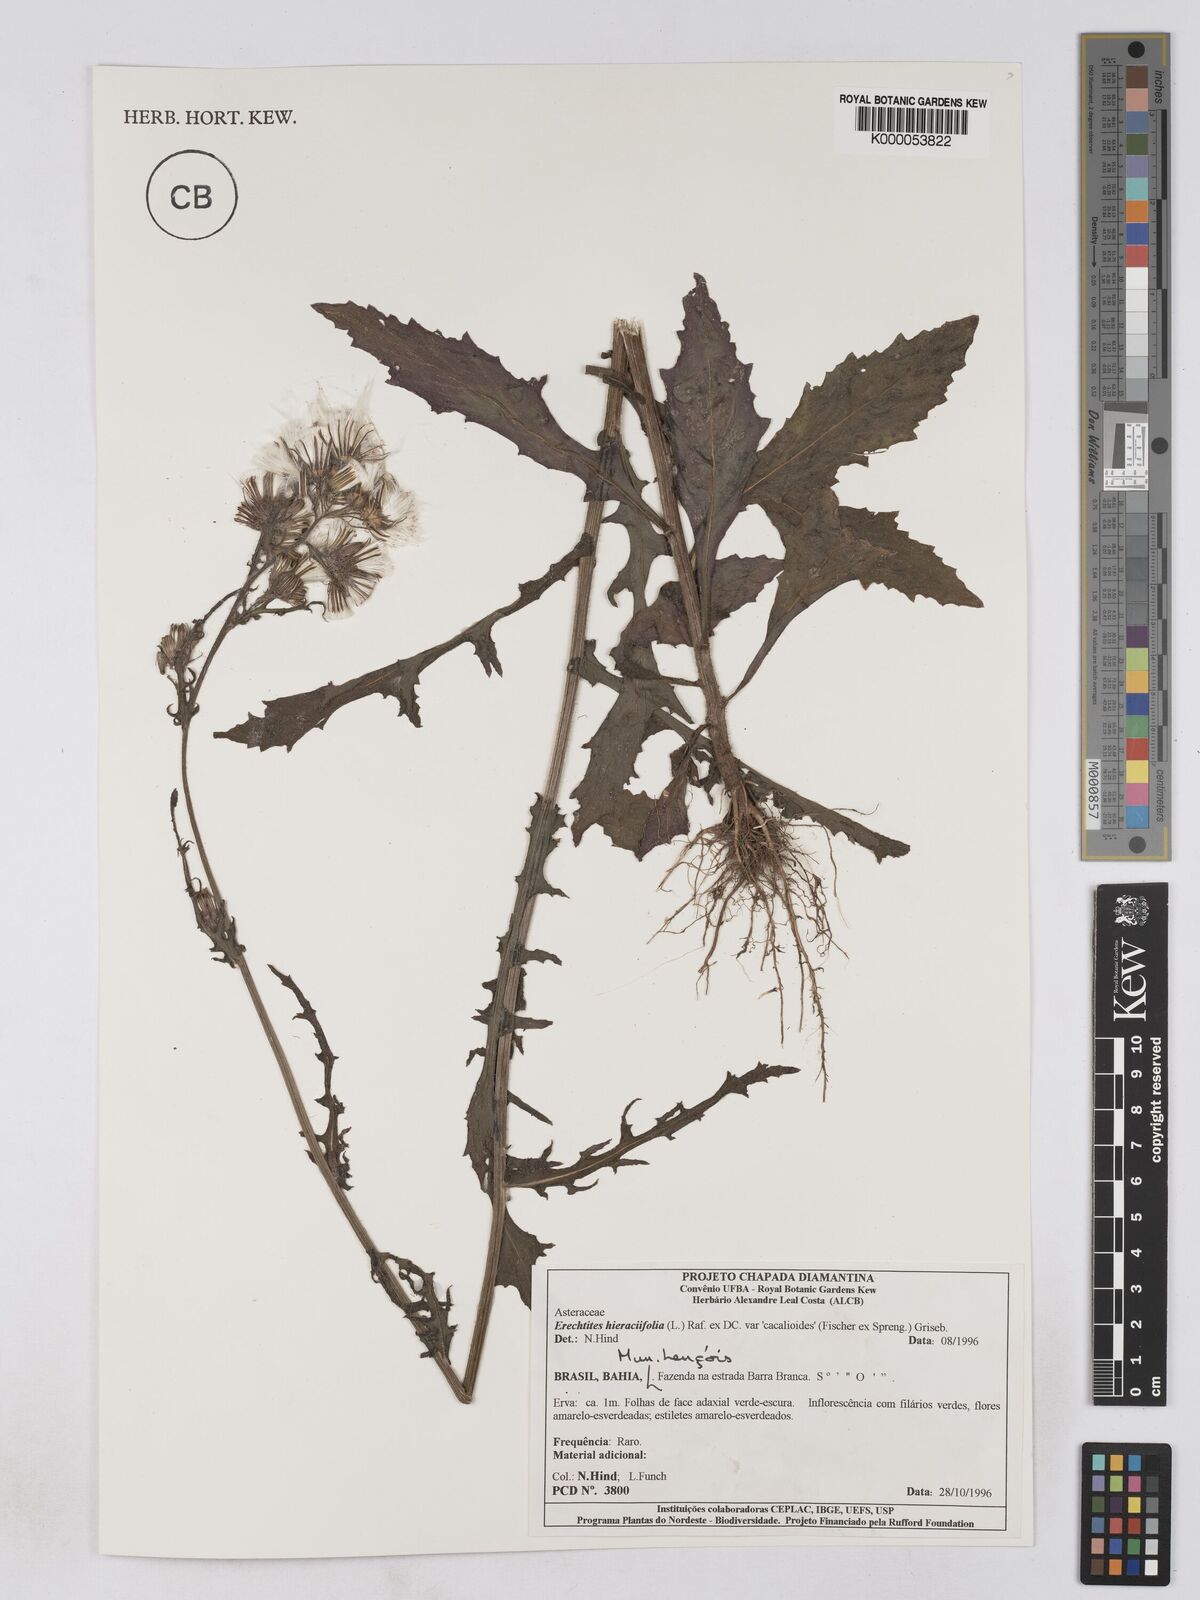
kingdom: Plantae
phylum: Tracheophyta
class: Magnoliopsida
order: Asterales
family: Asteraceae
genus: Erechtites
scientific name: Erechtites hieraciifolius
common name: American burnweed
